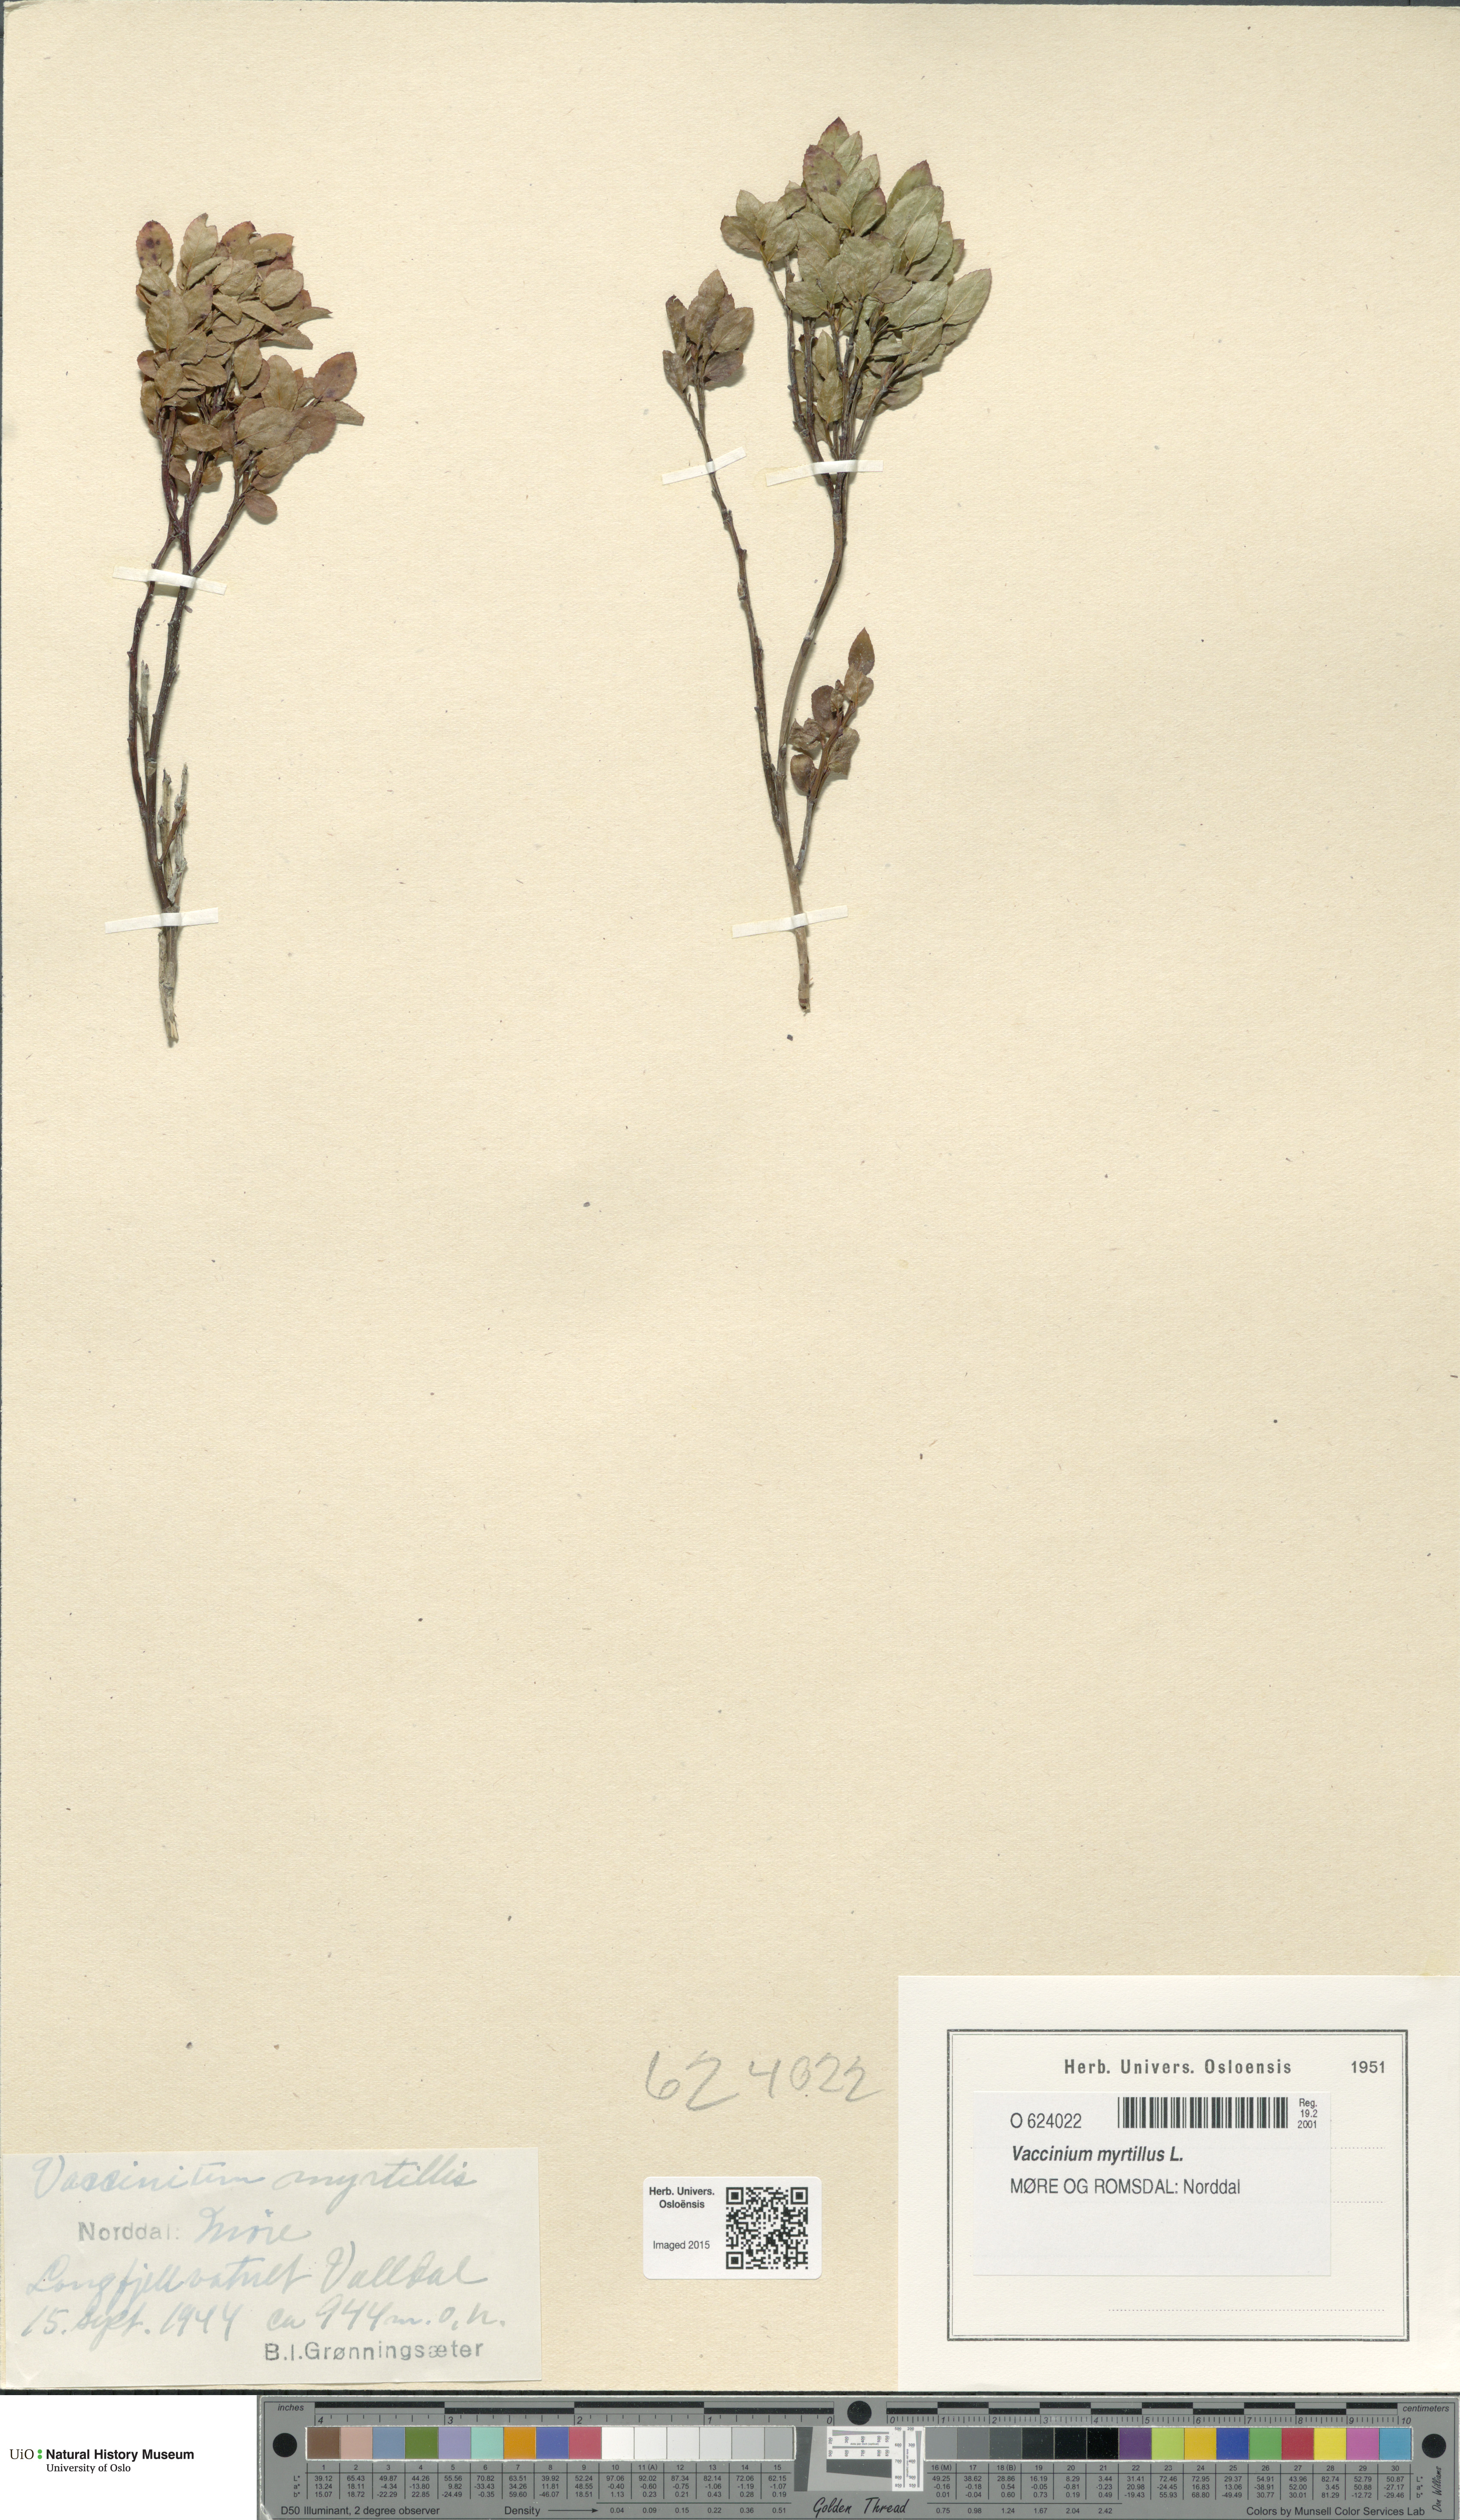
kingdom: Plantae
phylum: Tracheophyta
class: Magnoliopsida
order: Ericales
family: Ericaceae
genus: Vaccinium
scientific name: Vaccinium myrtillus
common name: Bilberry
